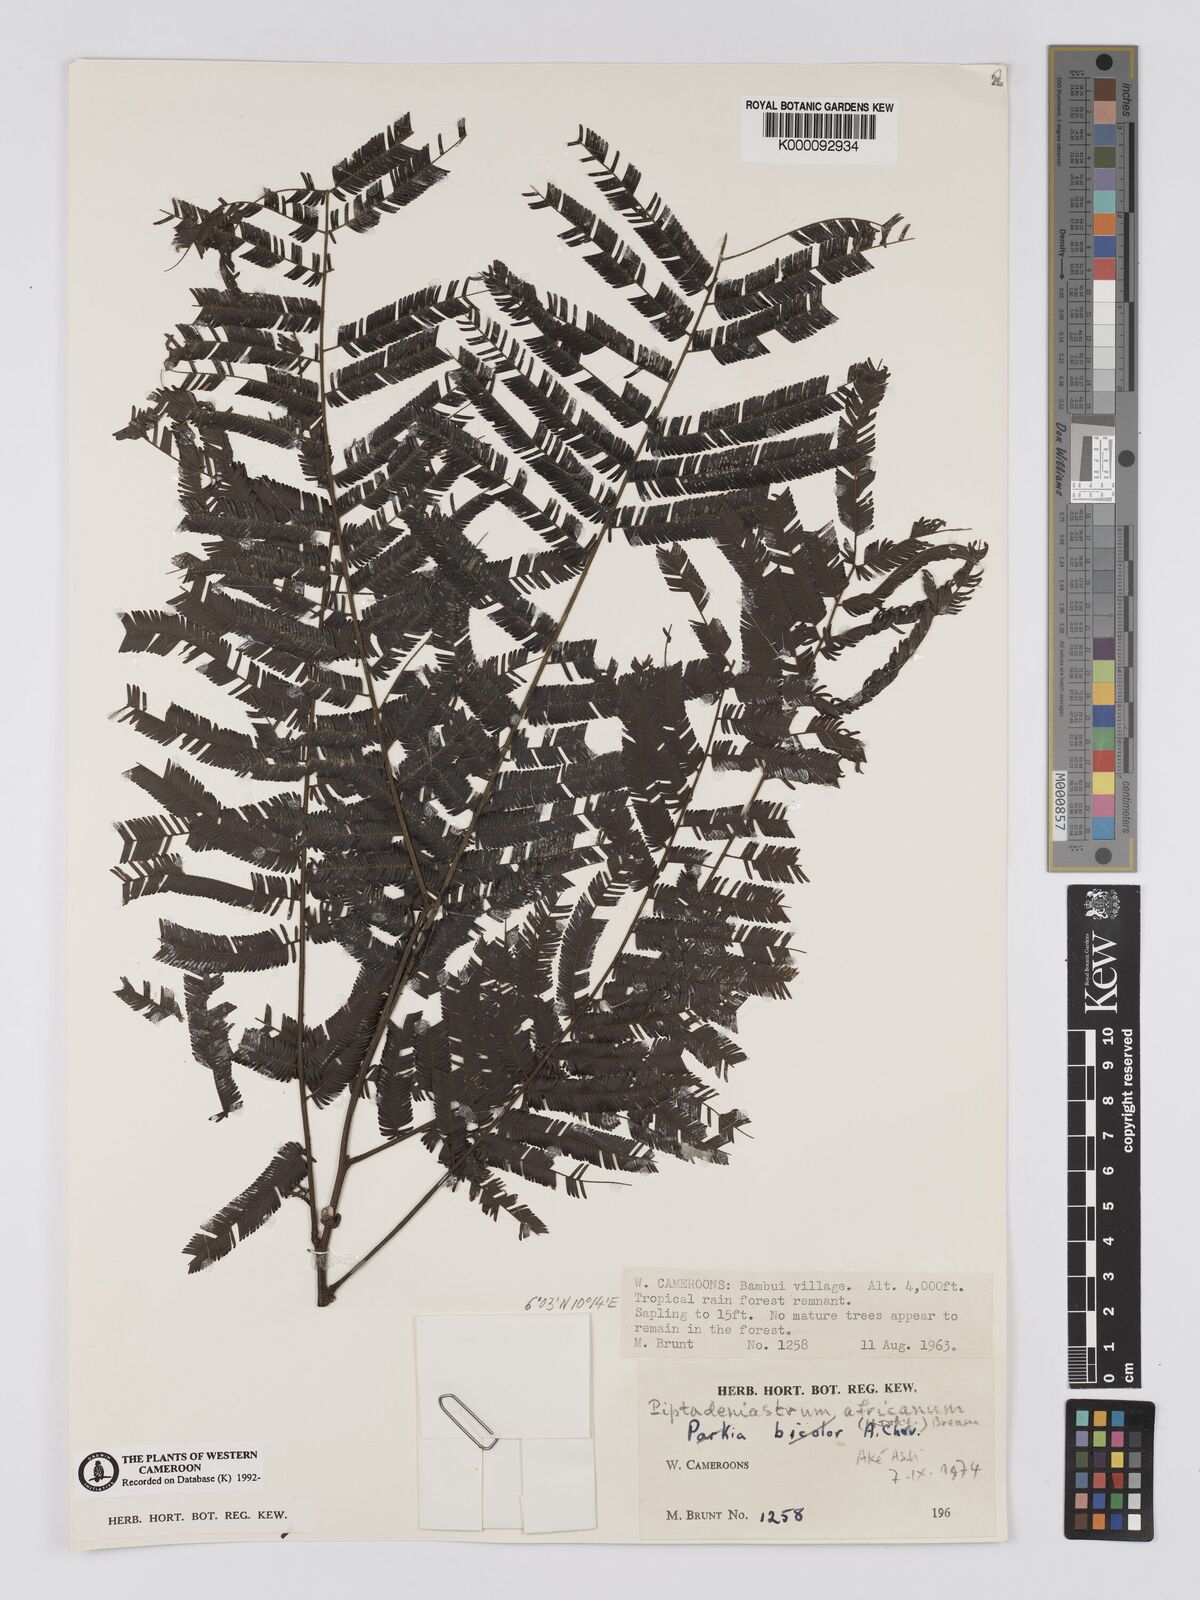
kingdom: Plantae
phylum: Tracheophyta
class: Magnoliopsida
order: Fabales
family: Fabaceae
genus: Piptadeniastrum
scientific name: Piptadeniastrum africanum
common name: African greenheart
